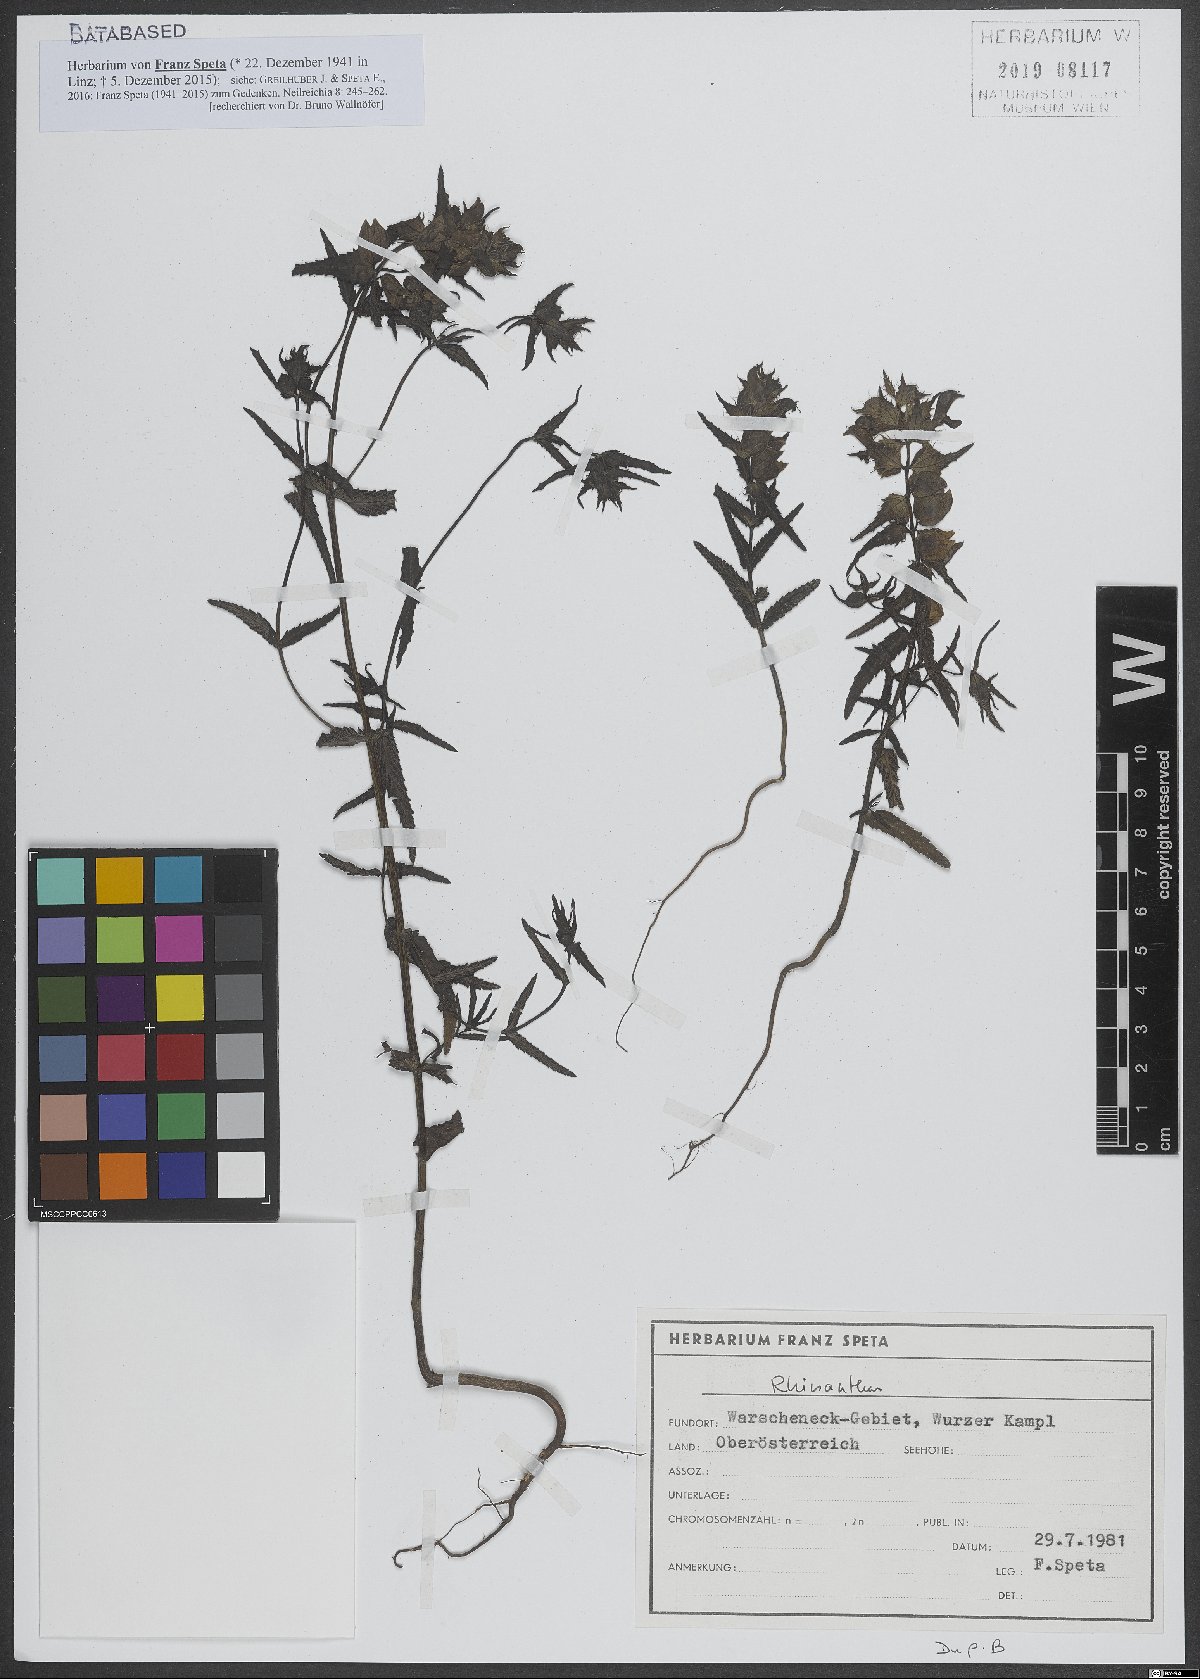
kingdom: Plantae
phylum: Tracheophyta
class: Magnoliopsida
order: Lamiales
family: Orobanchaceae
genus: Rhinanthus
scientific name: Rhinanthus
